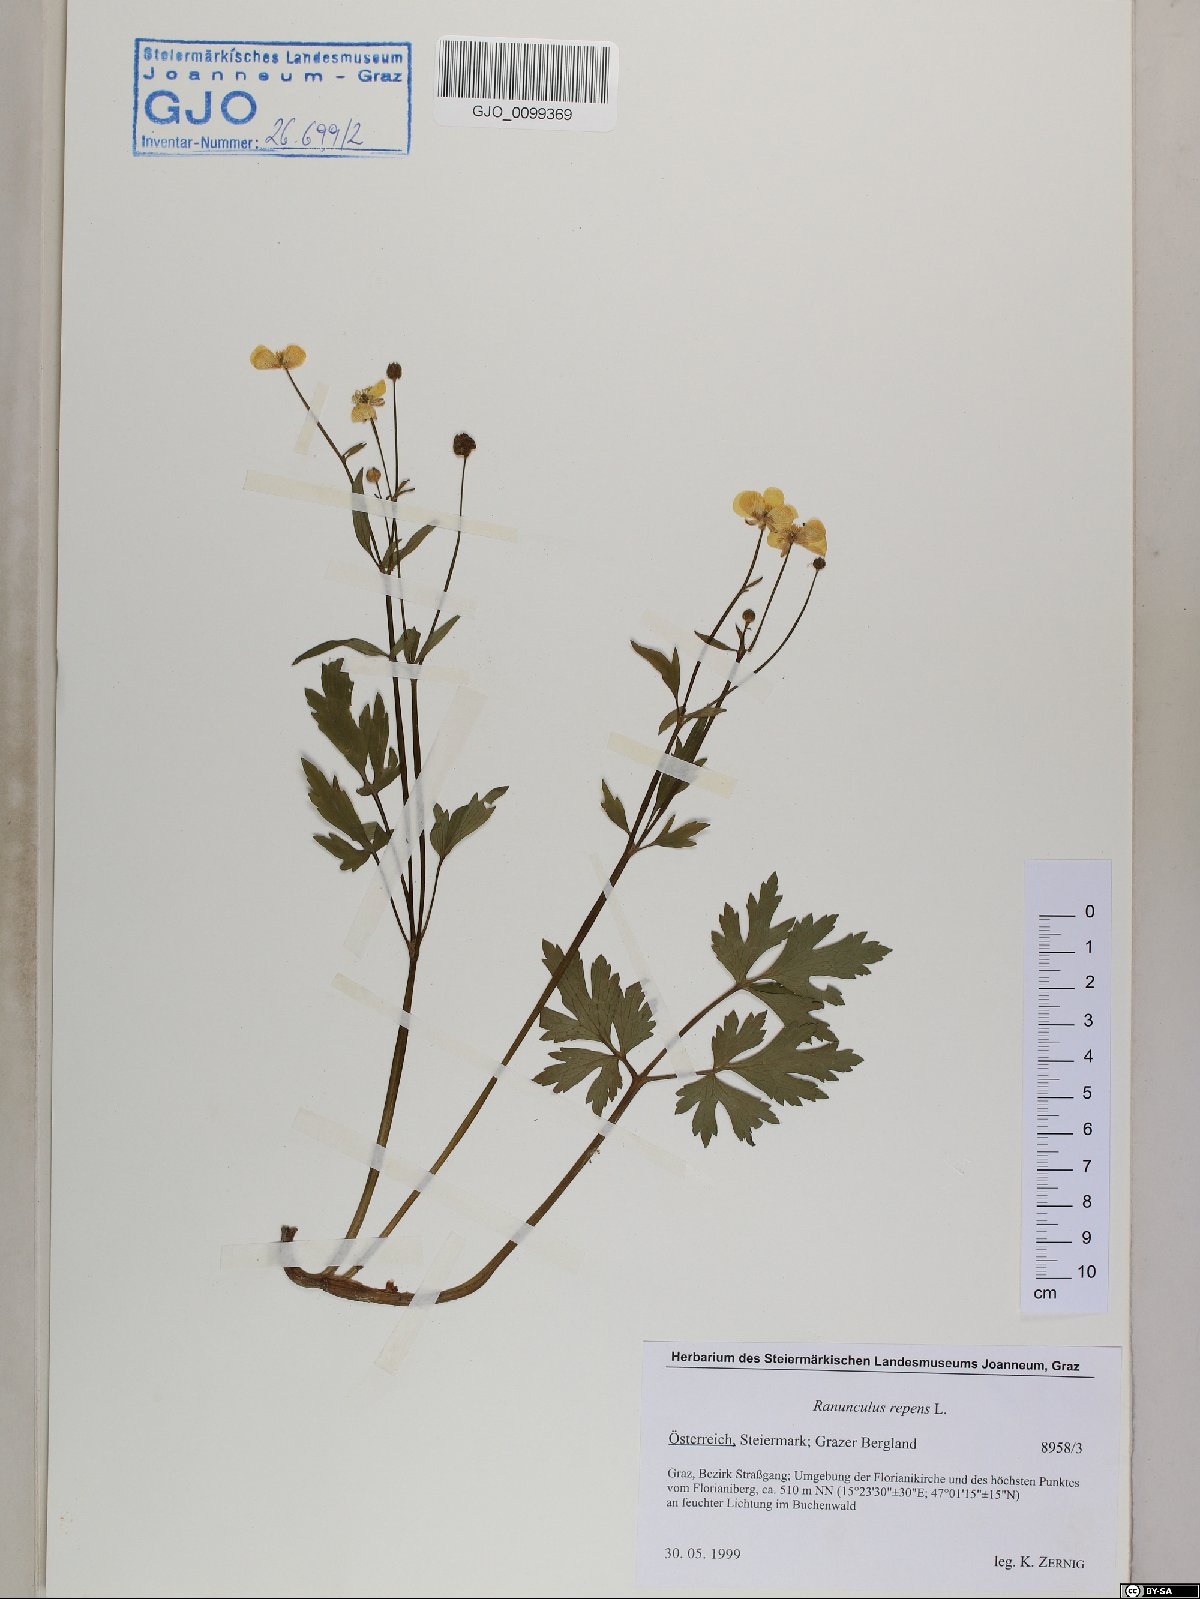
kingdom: Plantae
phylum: Tracheophyta
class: Magnoliopsida
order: Ranunculales
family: Ranunculaceae
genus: Ranunculus
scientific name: Ranunculus repens
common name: Creeping buttercup
